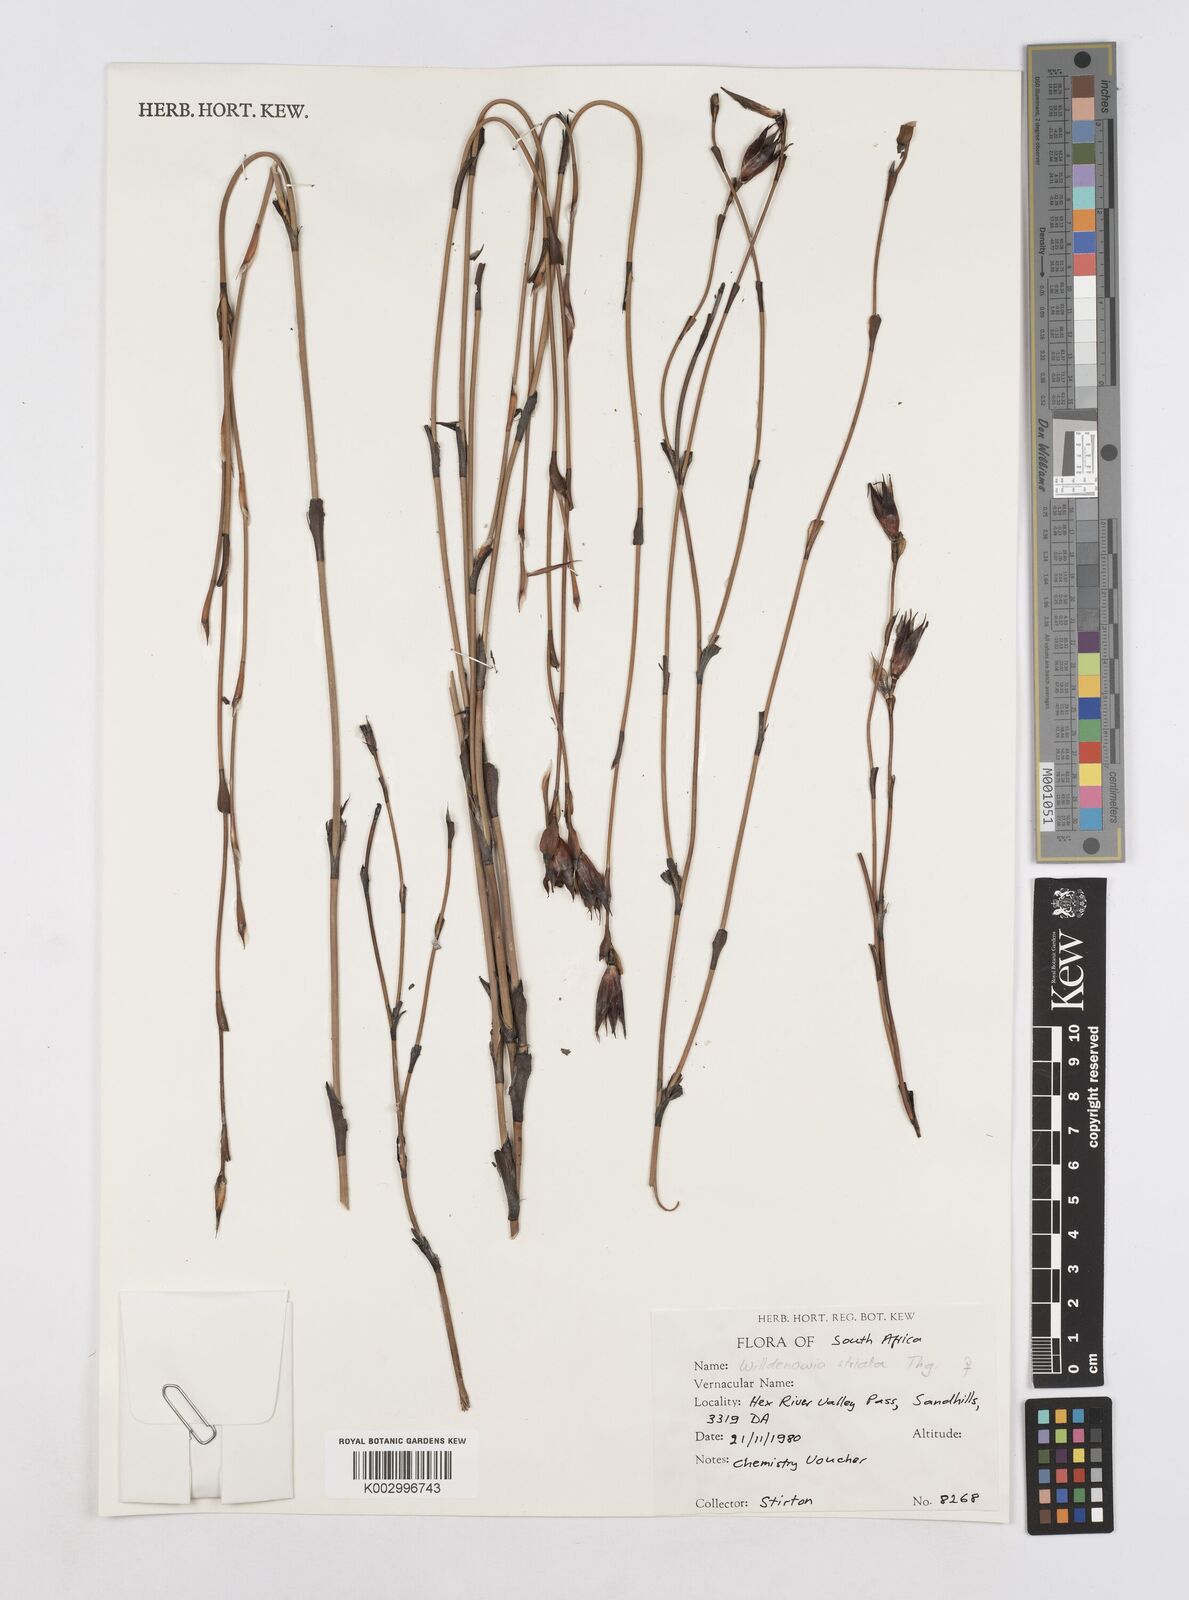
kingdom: Plantae
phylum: Tracheophyta
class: Liliopsida
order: Poales
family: Restionaceae
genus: Willdenowia
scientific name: Willdenowia incurvata
